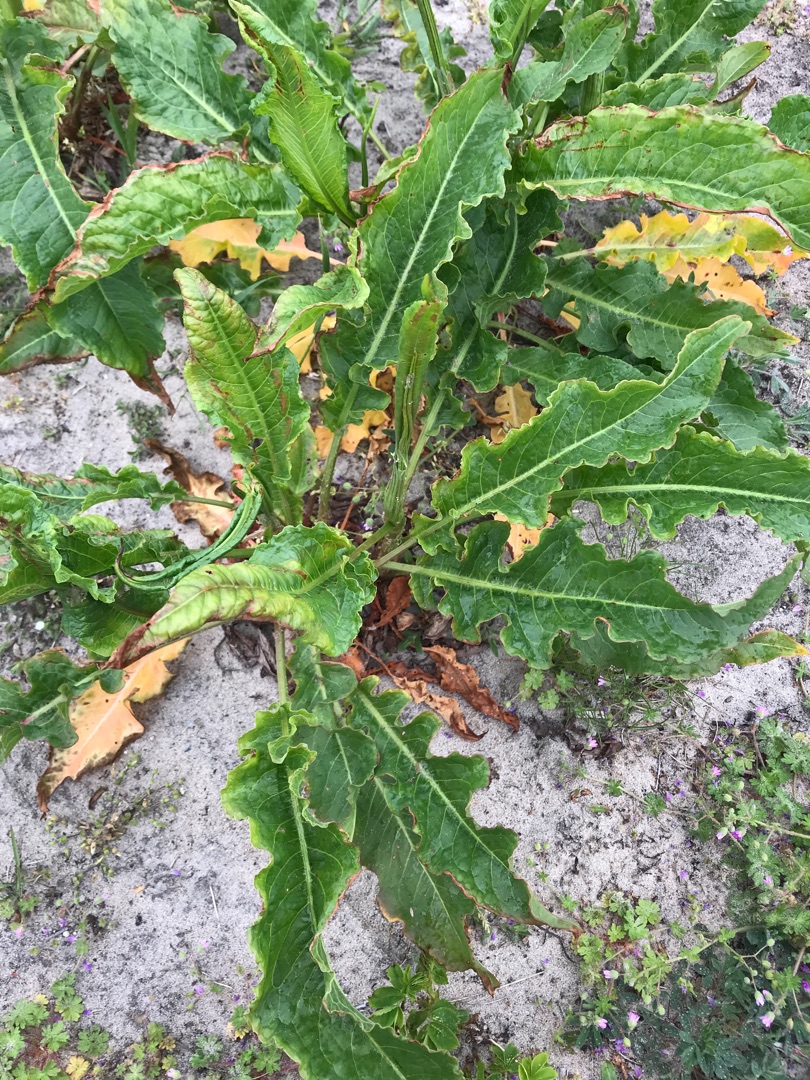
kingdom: Plantae
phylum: Tracheophyta
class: Magnoliopsida
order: Caryophyllales
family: Polygonaceae
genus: Rumex
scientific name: Rumex crispus
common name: Kruset skræppe
